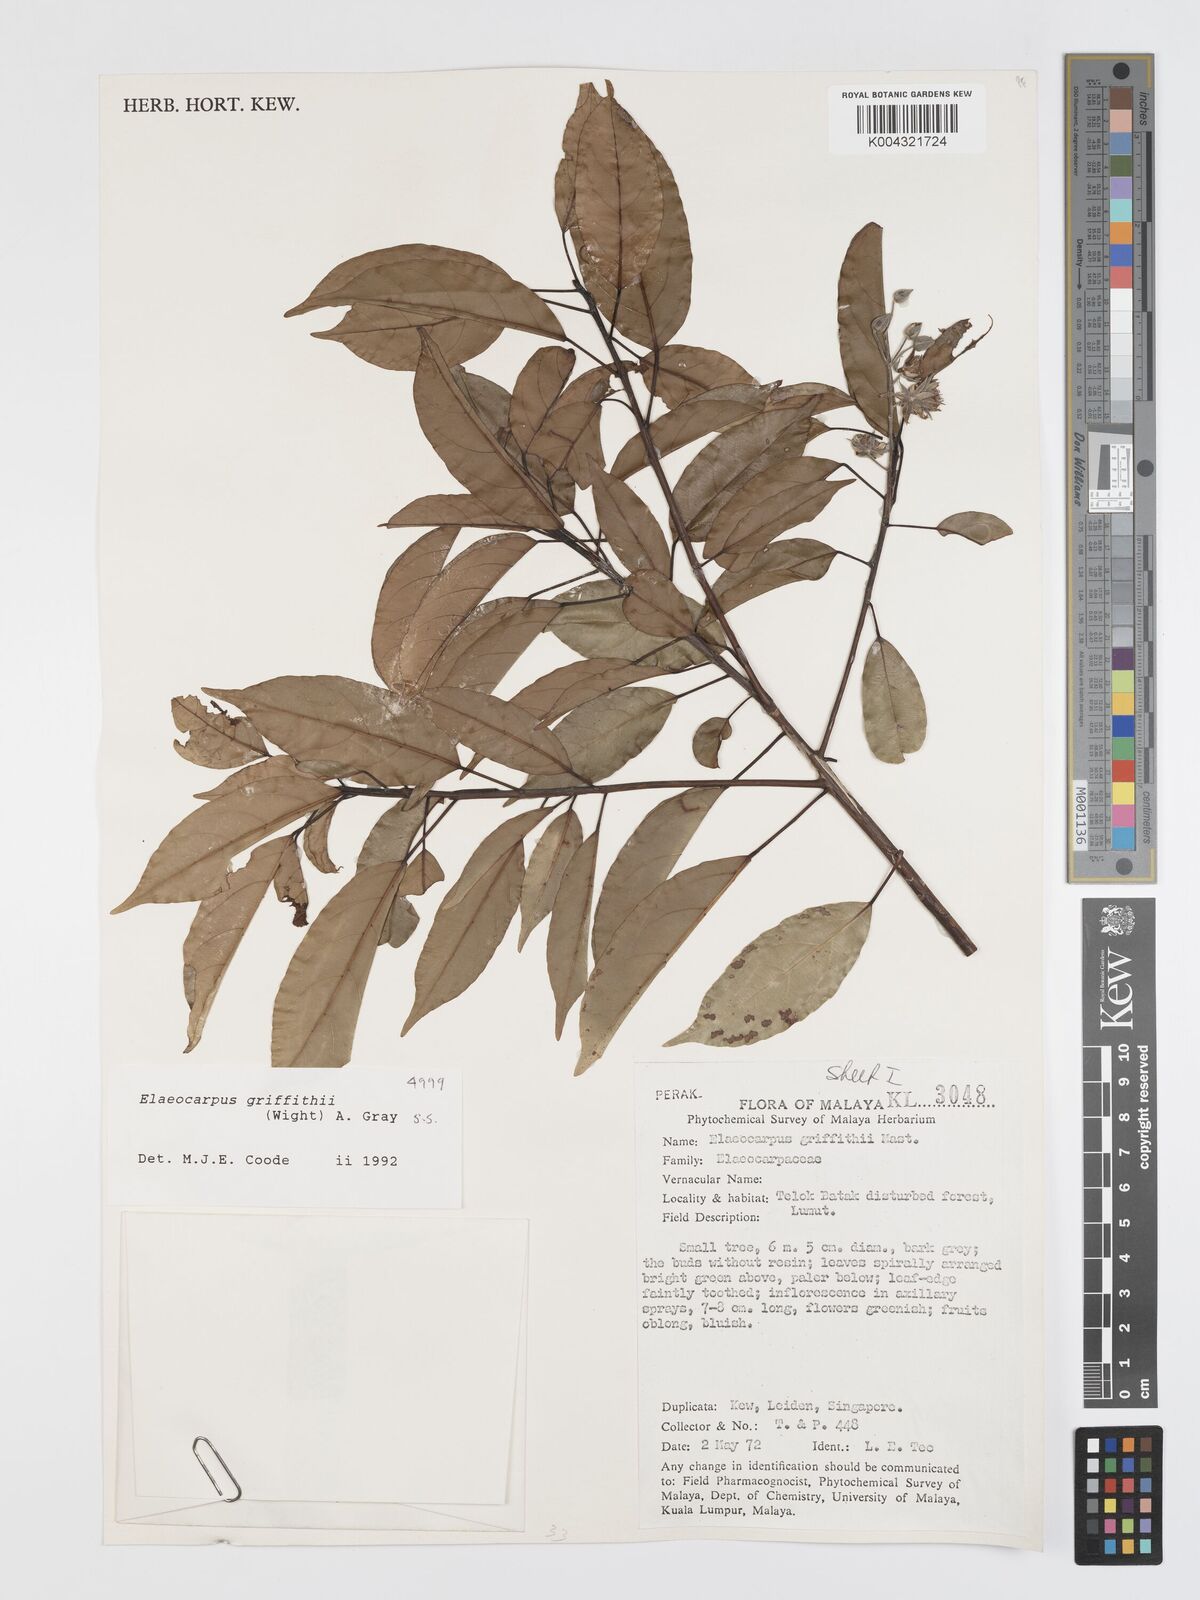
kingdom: Plantae
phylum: Tracheophyta
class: Magnoliopsida
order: Oxalidales
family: Elaeocarpaceae
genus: Elaeocarpus
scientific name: Elaeocarpus griffithii
